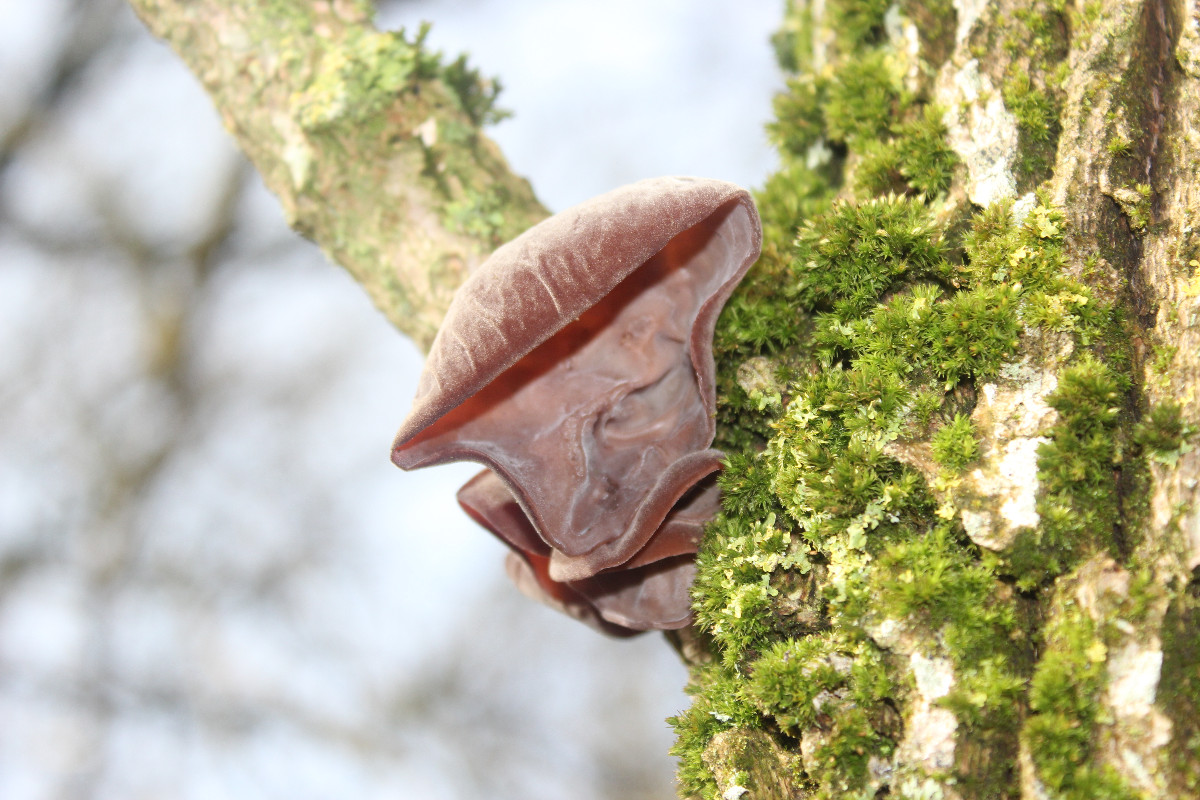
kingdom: Fungi
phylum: Basidiomycota
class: Agaricomycetes
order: Auriculariales
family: Auriculariaceae
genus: Auricularia
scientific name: Auricularia auricula-judae
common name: almindelig judasøre
